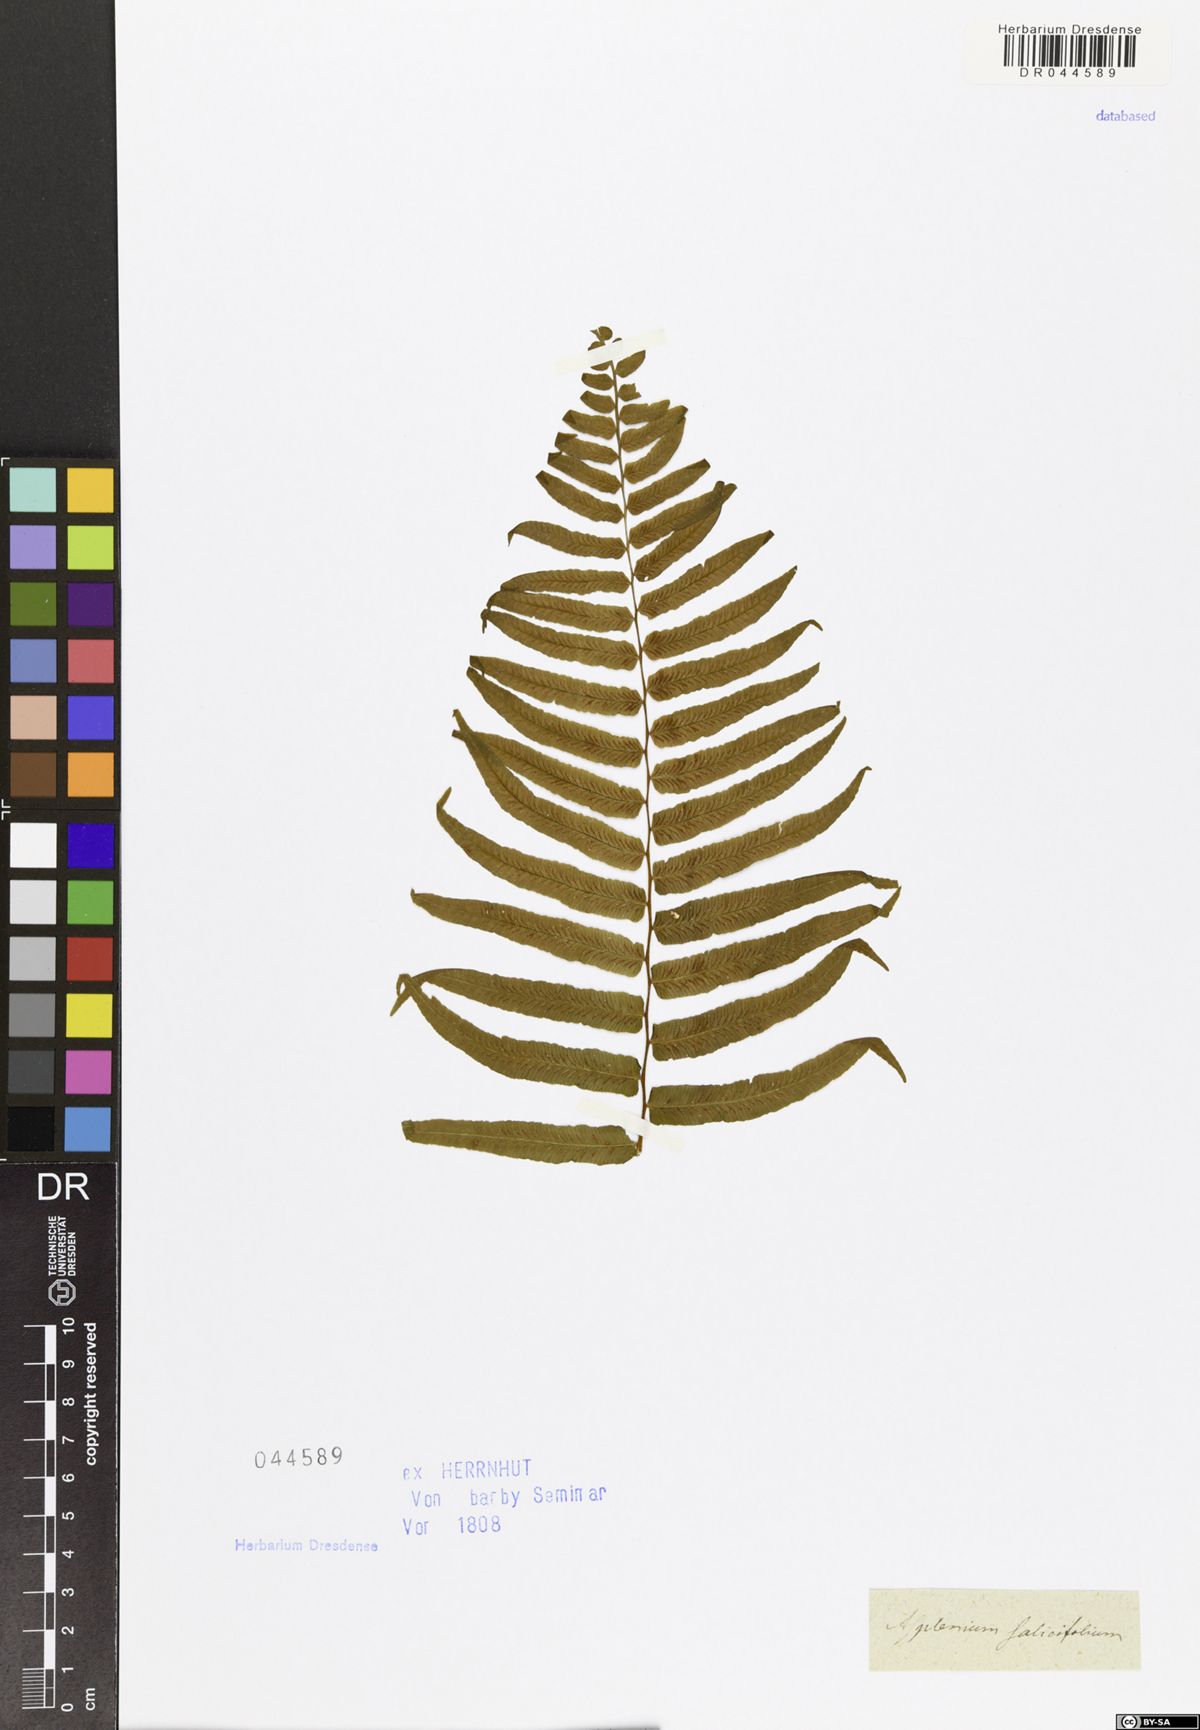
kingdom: Plantae
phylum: Tracheophyta
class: Polypodiopsida
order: Polypodiales
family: Aspleniaceae
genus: Asplenium
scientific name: Asplenium
